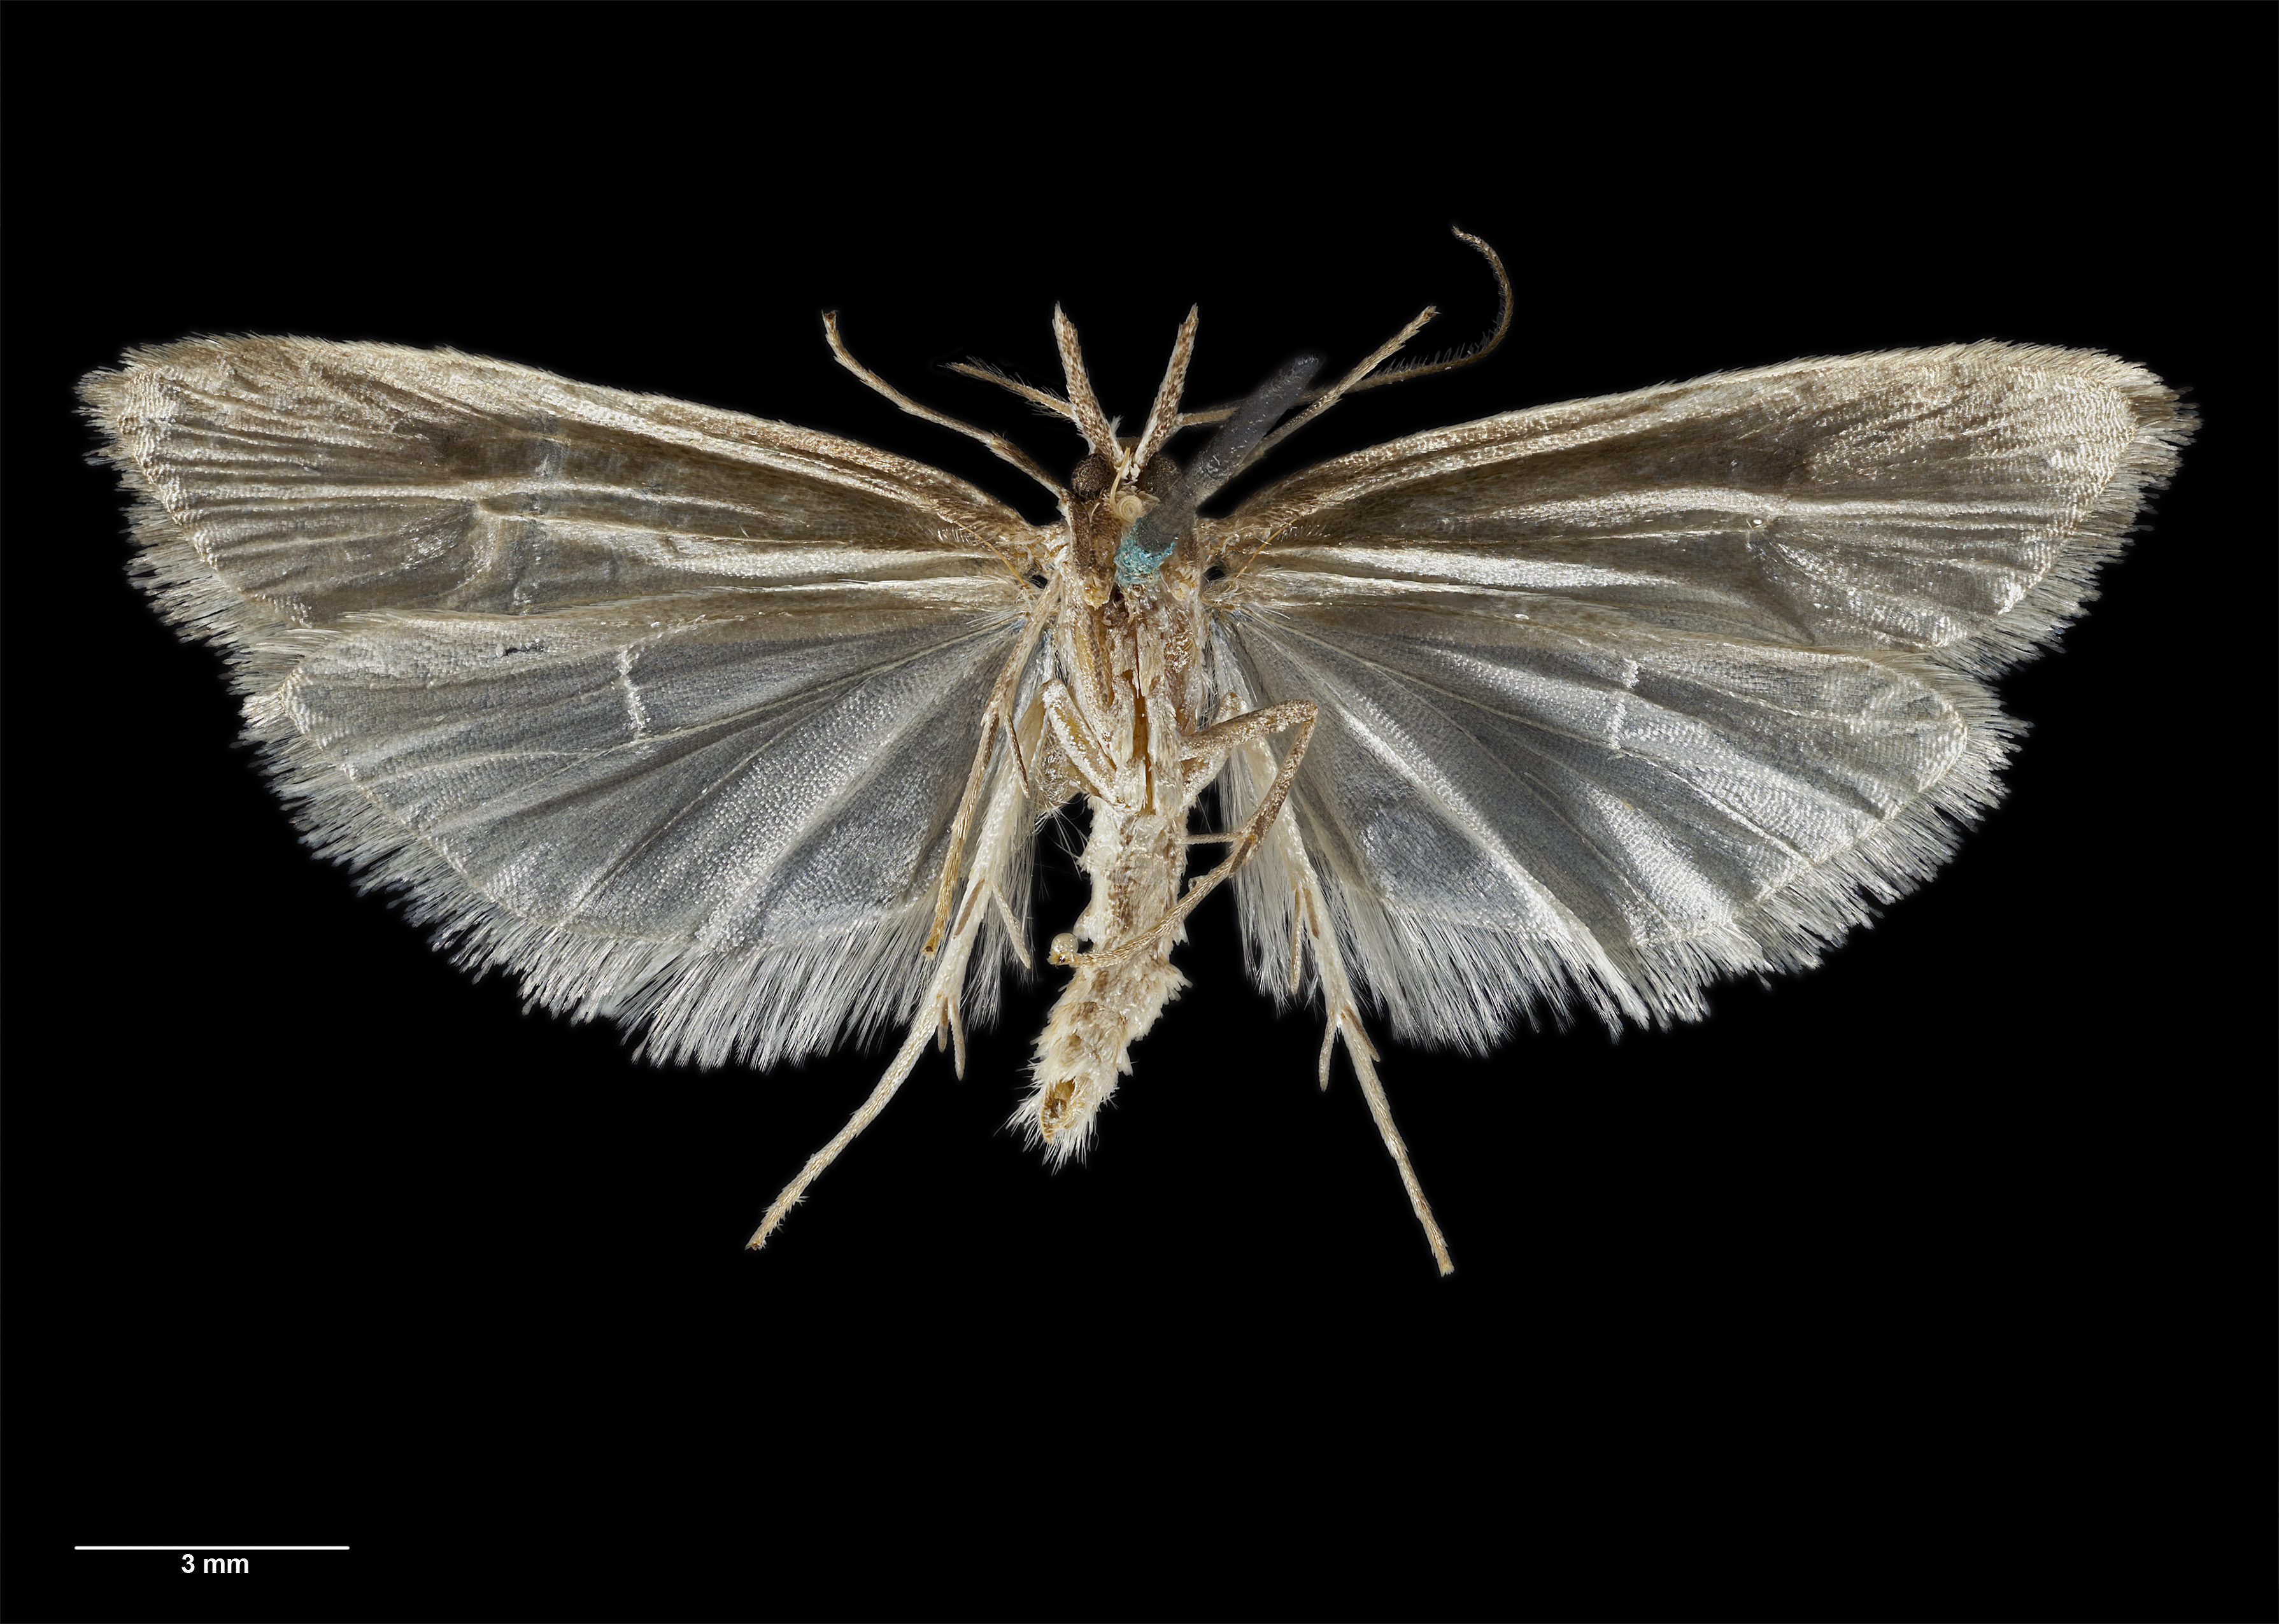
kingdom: Animalia
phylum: Arthropoda
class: Insecta
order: Lepidoptera
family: Carposinidae
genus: Carposina
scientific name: Carposina
